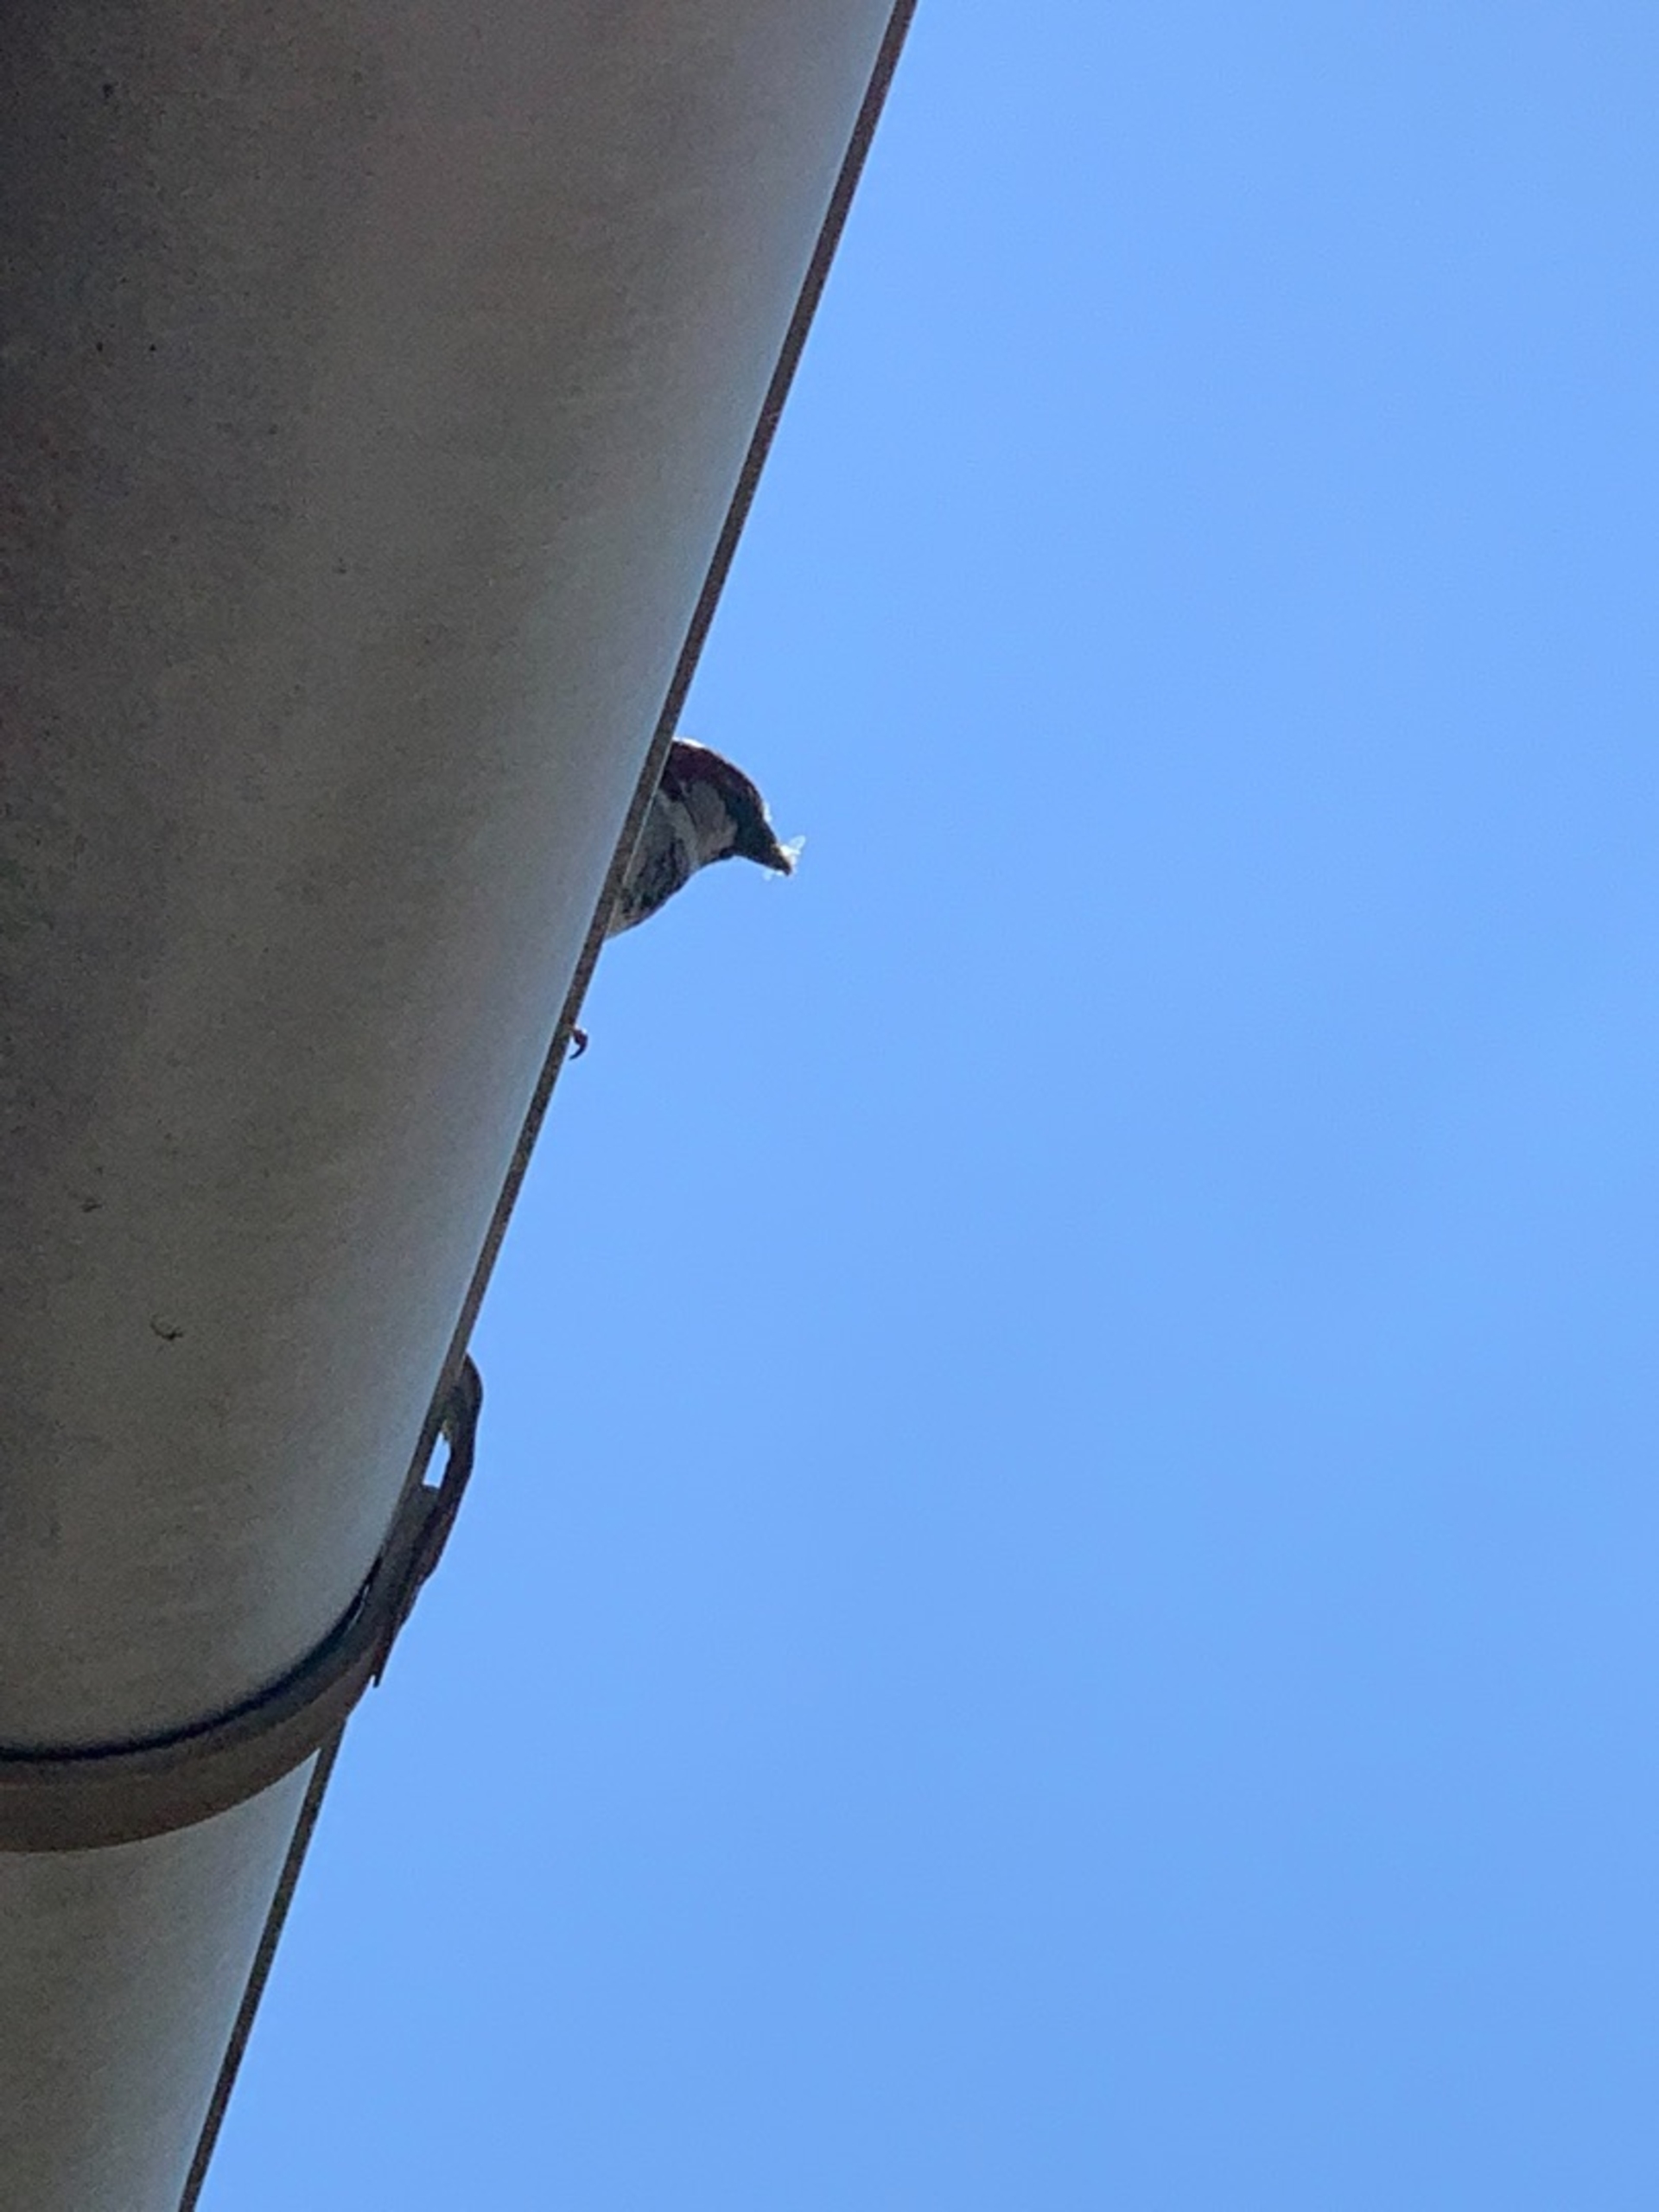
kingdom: Animalia
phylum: Chordata
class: Aves
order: Passeriformes
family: Passeridae
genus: Passer
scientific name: Passer domesticus
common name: Gråspurv
